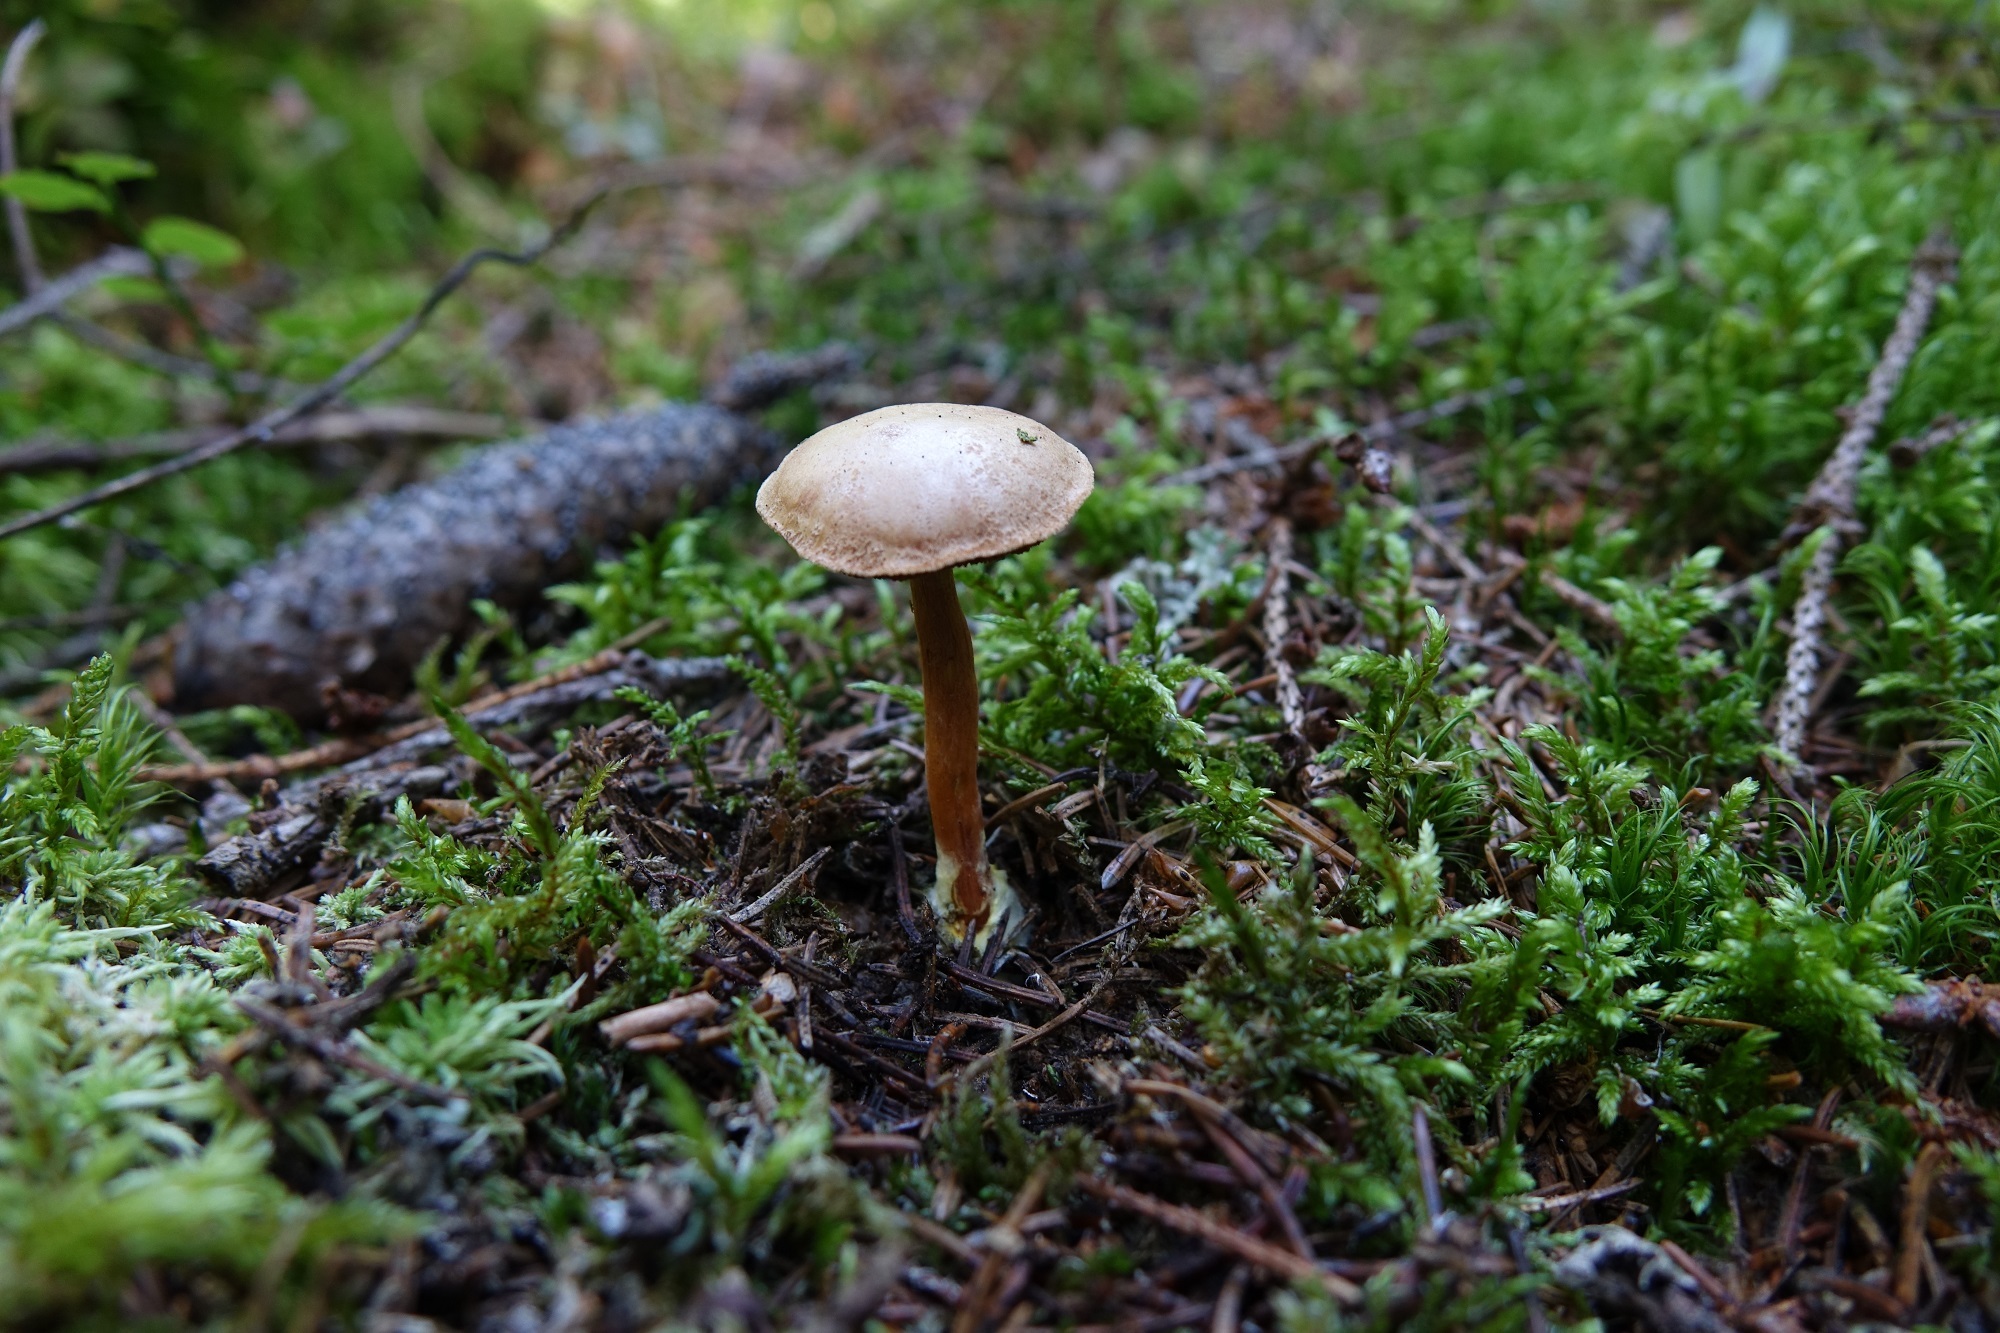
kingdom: Fungi
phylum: Basidiomycota
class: Agaricomycetes
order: Boletales
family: Boletaceae
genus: Chalciporus
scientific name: Chalciporus piperatus
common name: Peppery bolete
